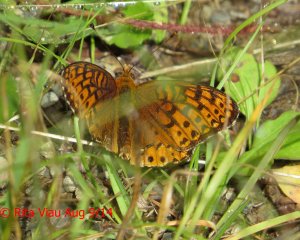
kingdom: Animalia
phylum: Arthropoda
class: Insecta
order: Lepidoptera
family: Nymphalidae
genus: Speyeria
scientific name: Speyeria atlantis
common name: Atlantis Fritillary
